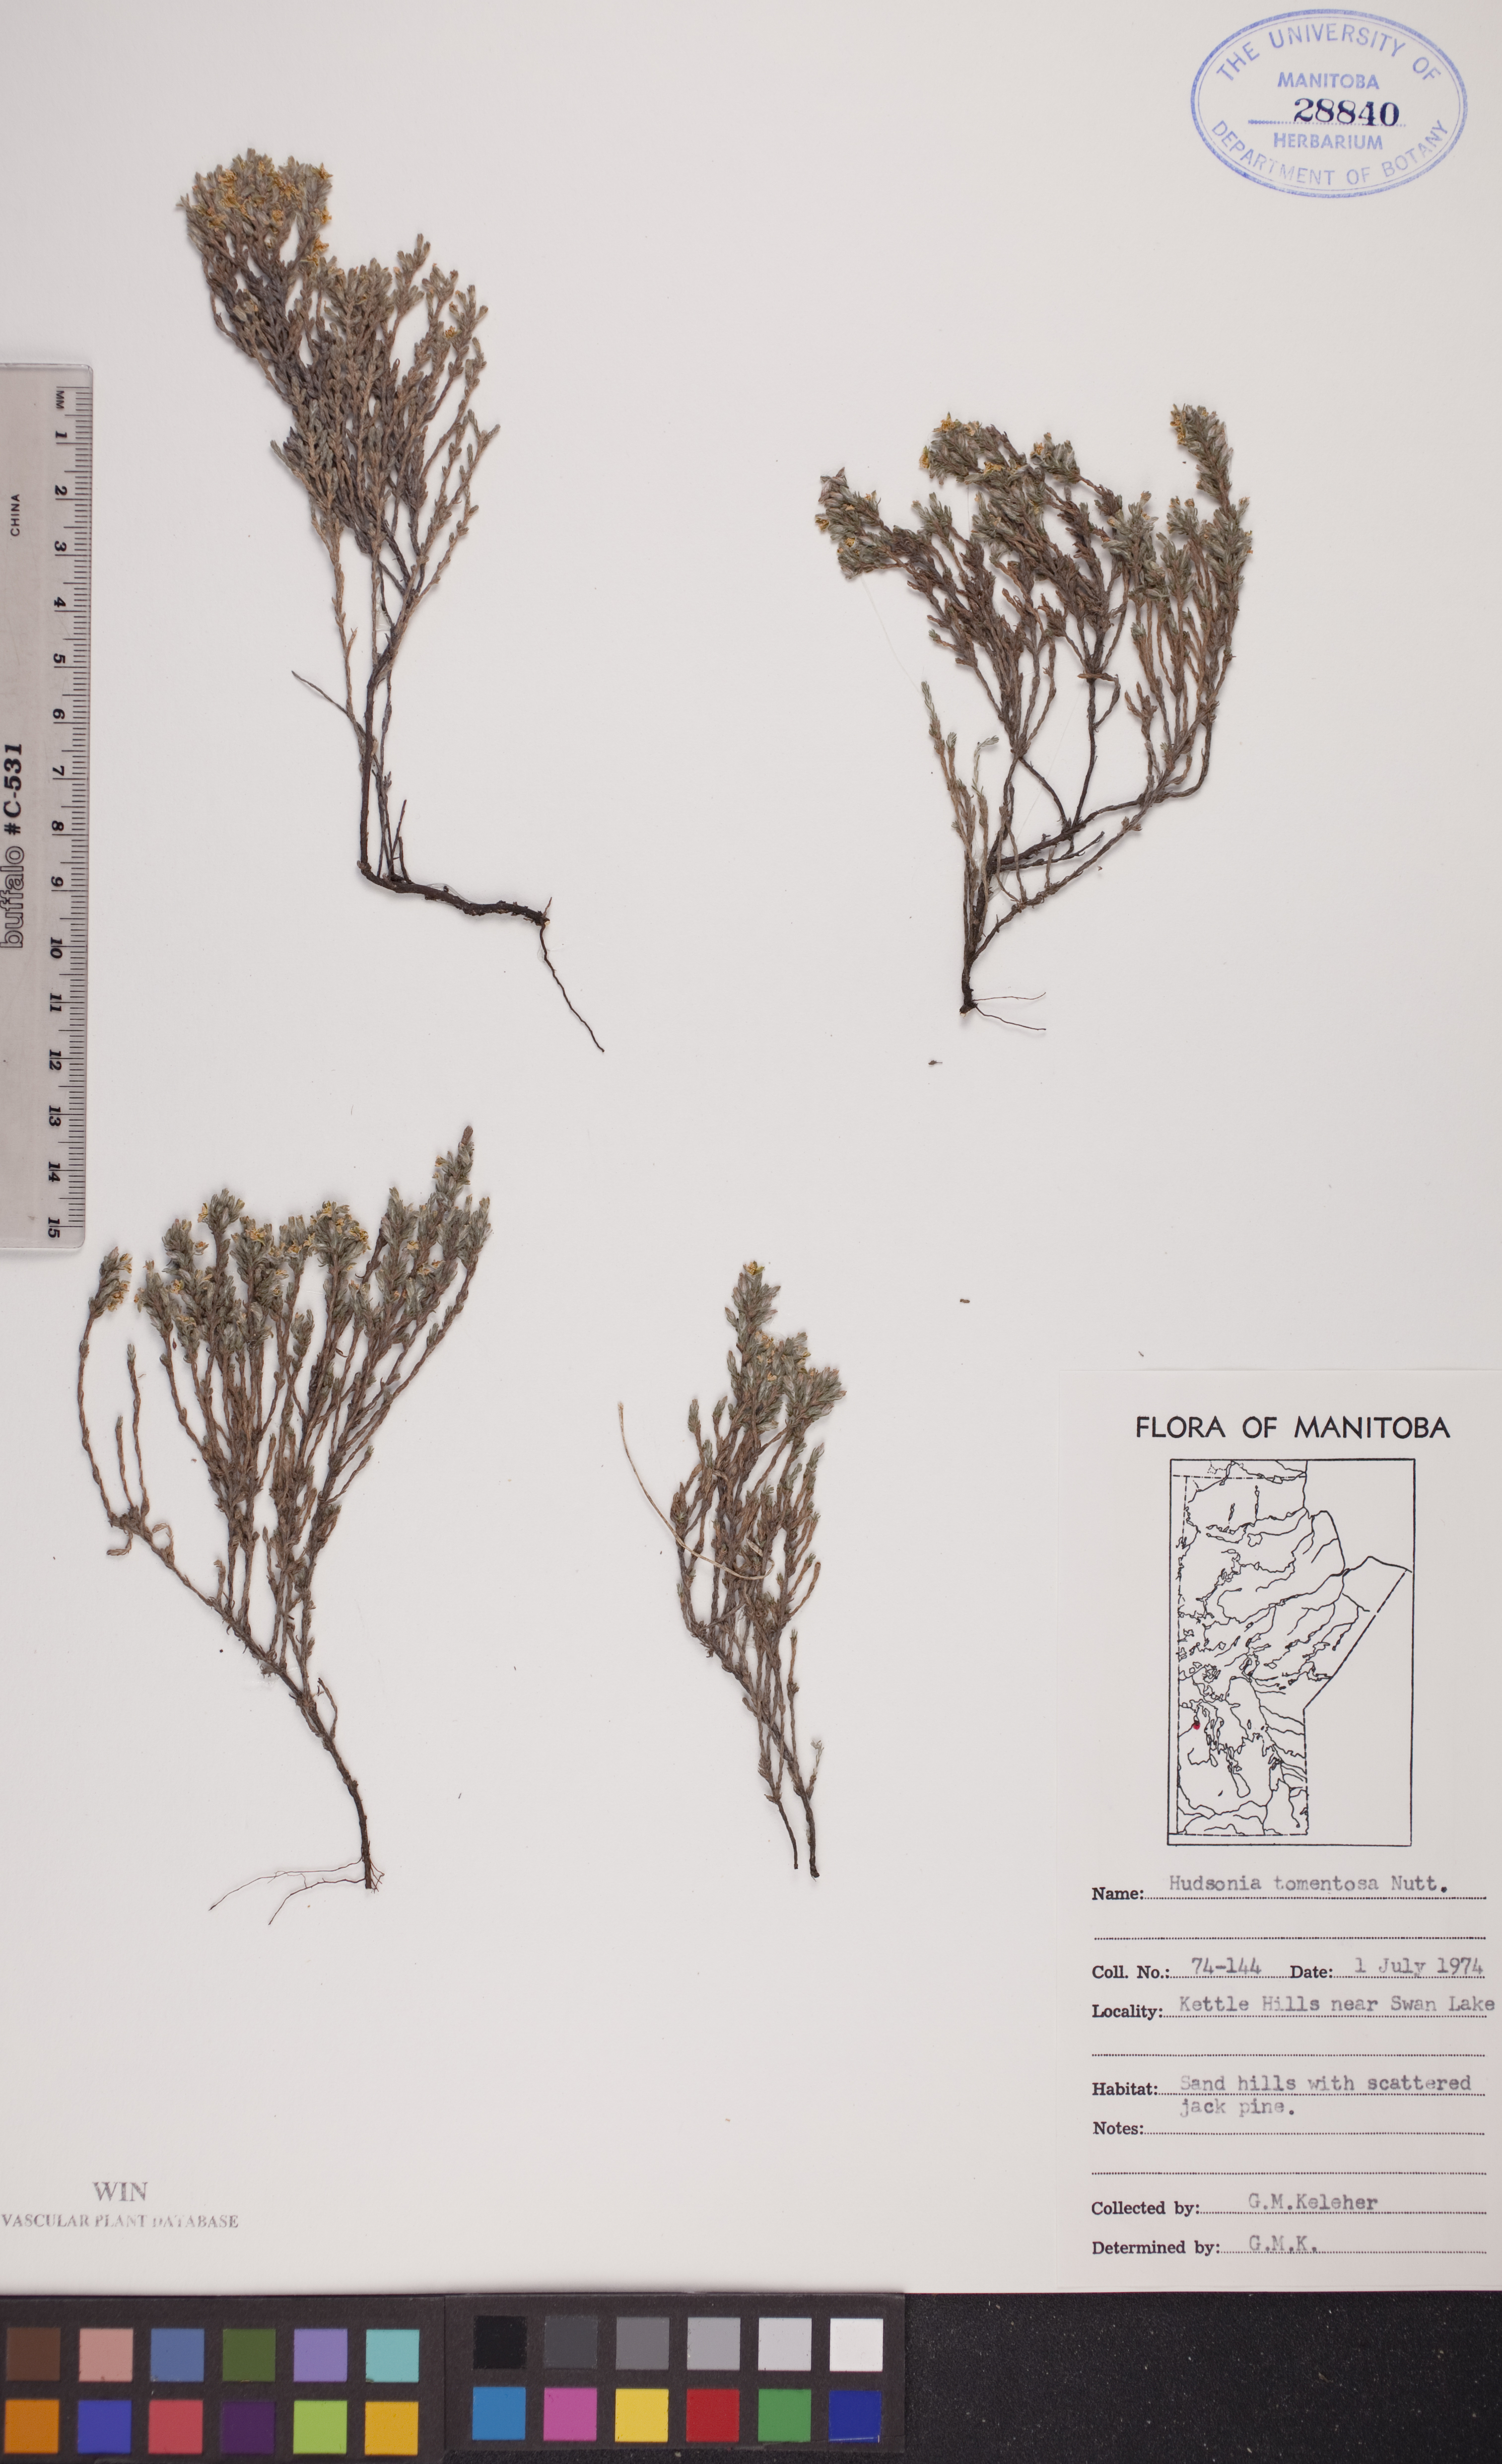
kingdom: Plantae
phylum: Tracheophyta
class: Magnoliopsida
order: Malvales
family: Cistaceae
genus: Hudsonia
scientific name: Hudsonia tomentosa
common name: Beach-heath
